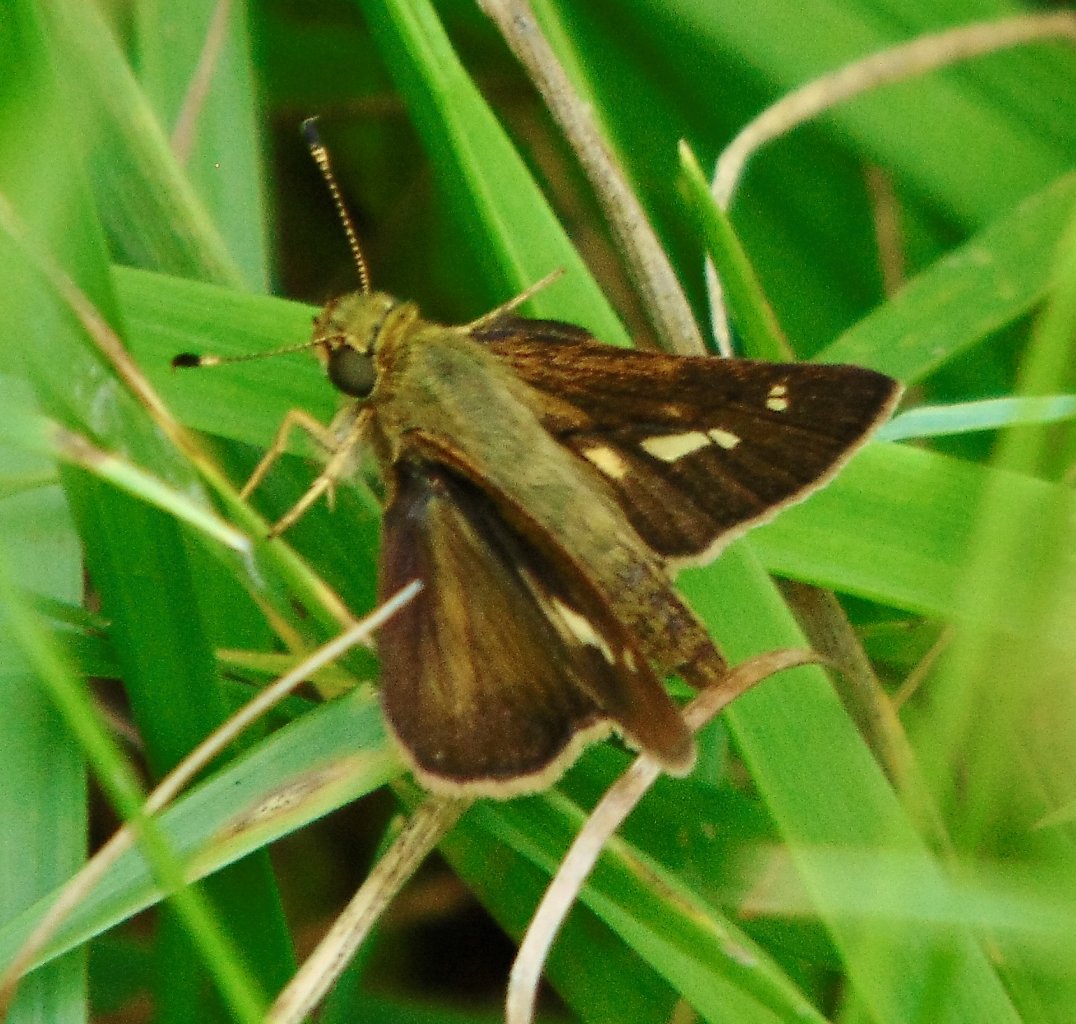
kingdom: Animalia
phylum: Arthropoda
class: Insecta
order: Lepidoptera
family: Hesperiidae
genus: Vernia
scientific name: Vernia verna
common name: Little Glassywing
